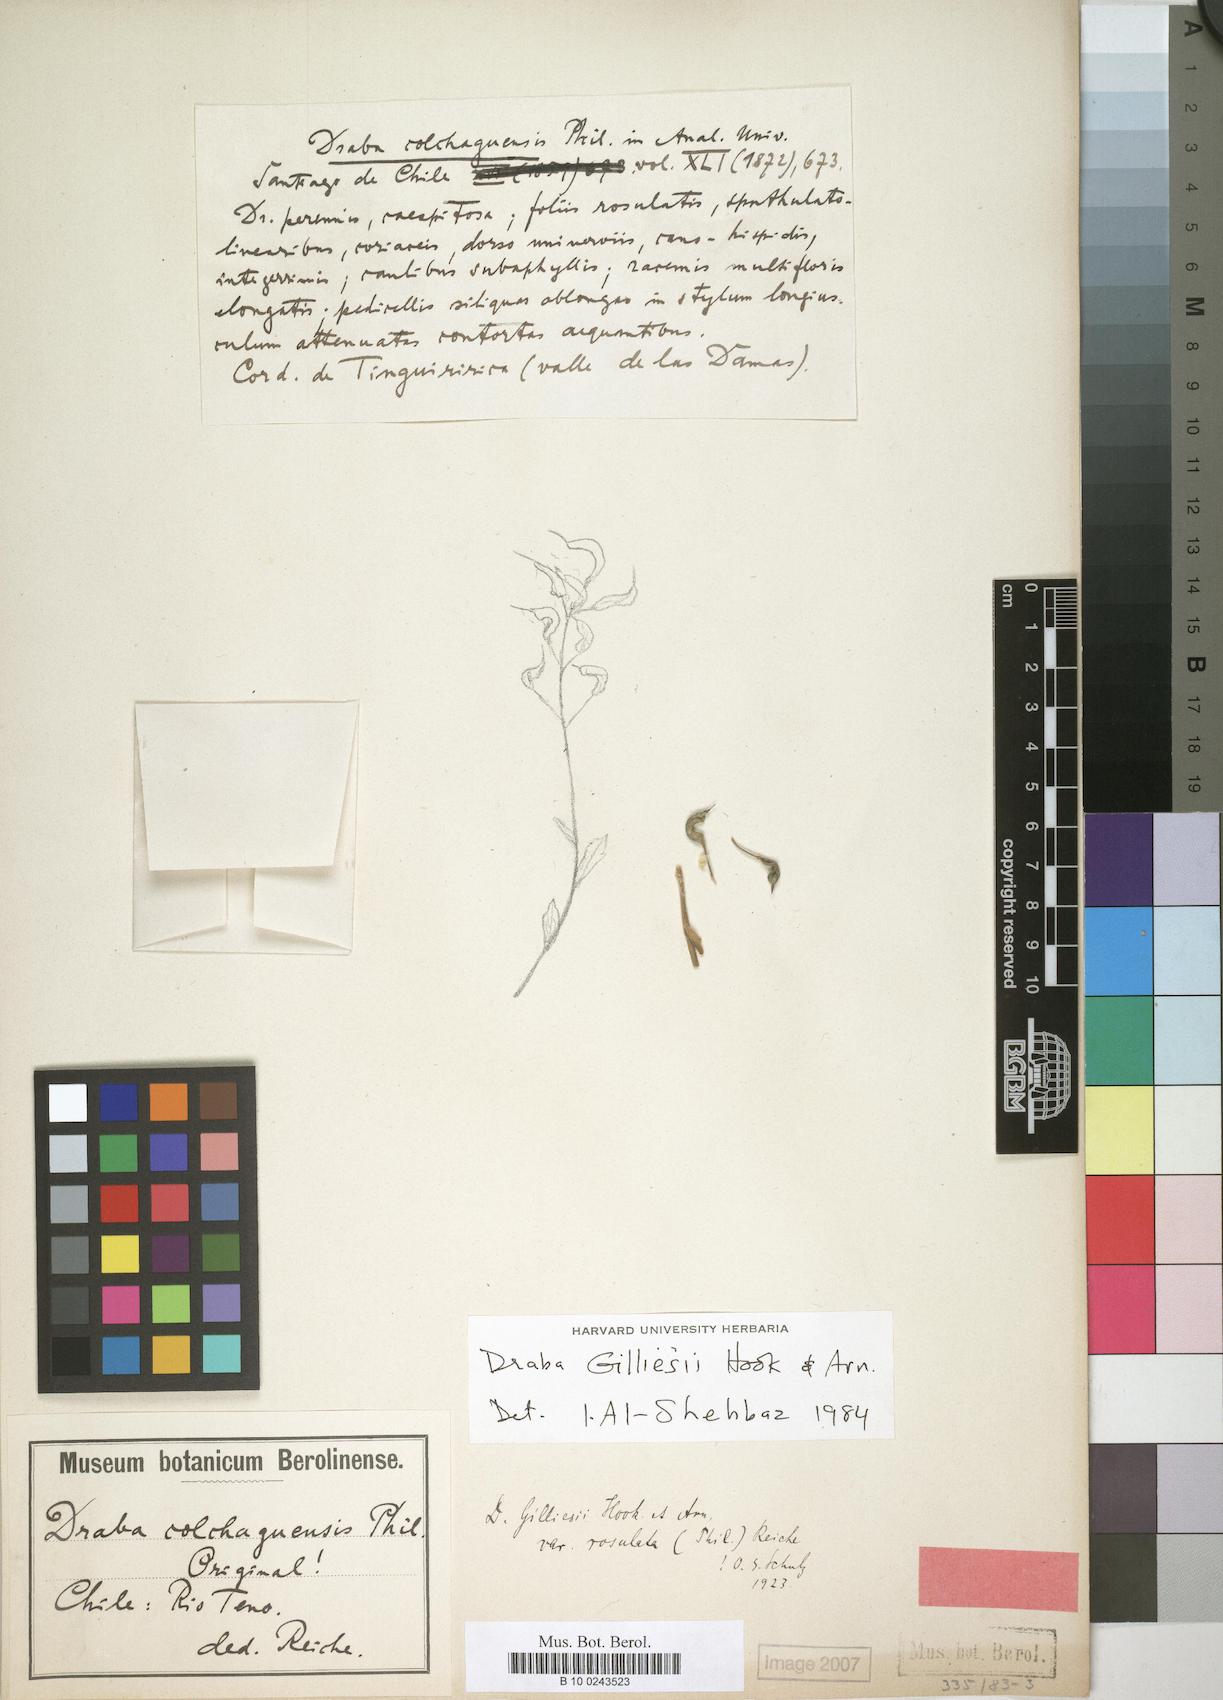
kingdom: Plantae
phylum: Tracheophyta
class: Magnoliopsida
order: Brassicales
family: Brassicaceae
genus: Draba
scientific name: Draba gilliesii
